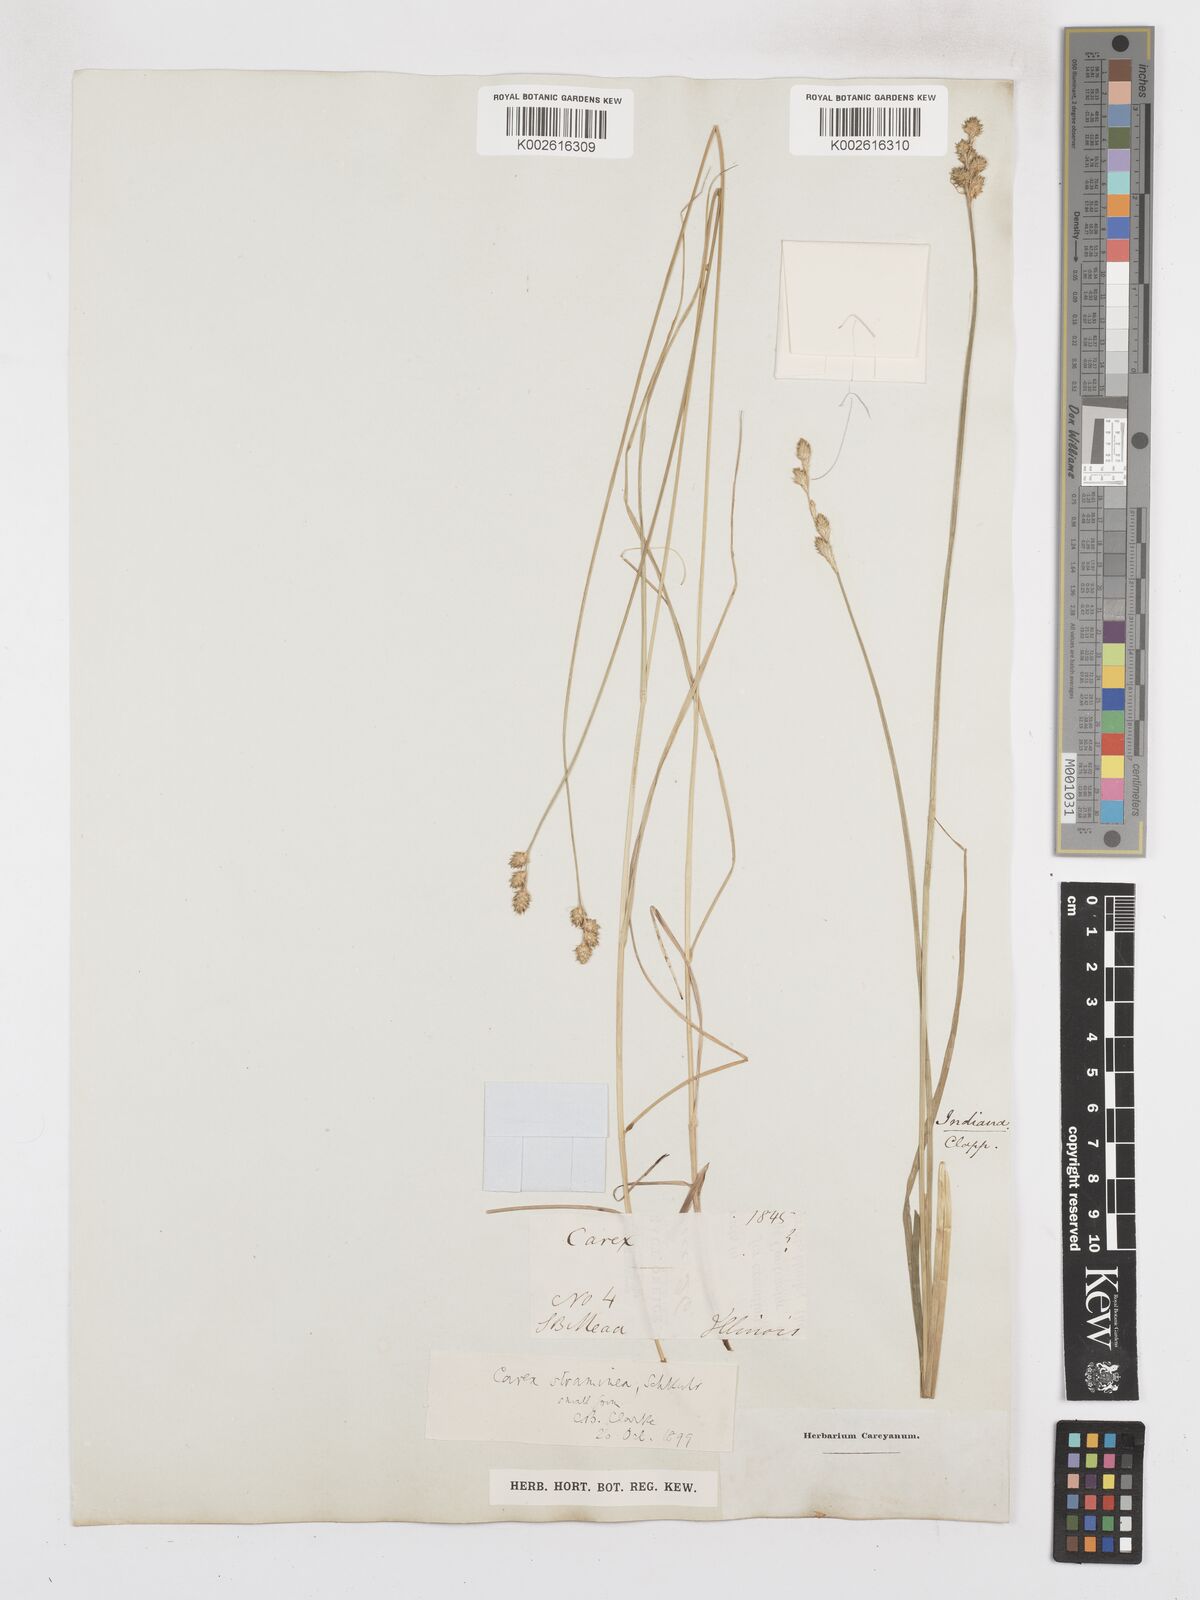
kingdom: Plantae
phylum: Tracheophyta
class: Liliopsida
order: Poales
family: Cyperaceae
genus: Carex
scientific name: Carex albolutescens
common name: Freenish white sedge
